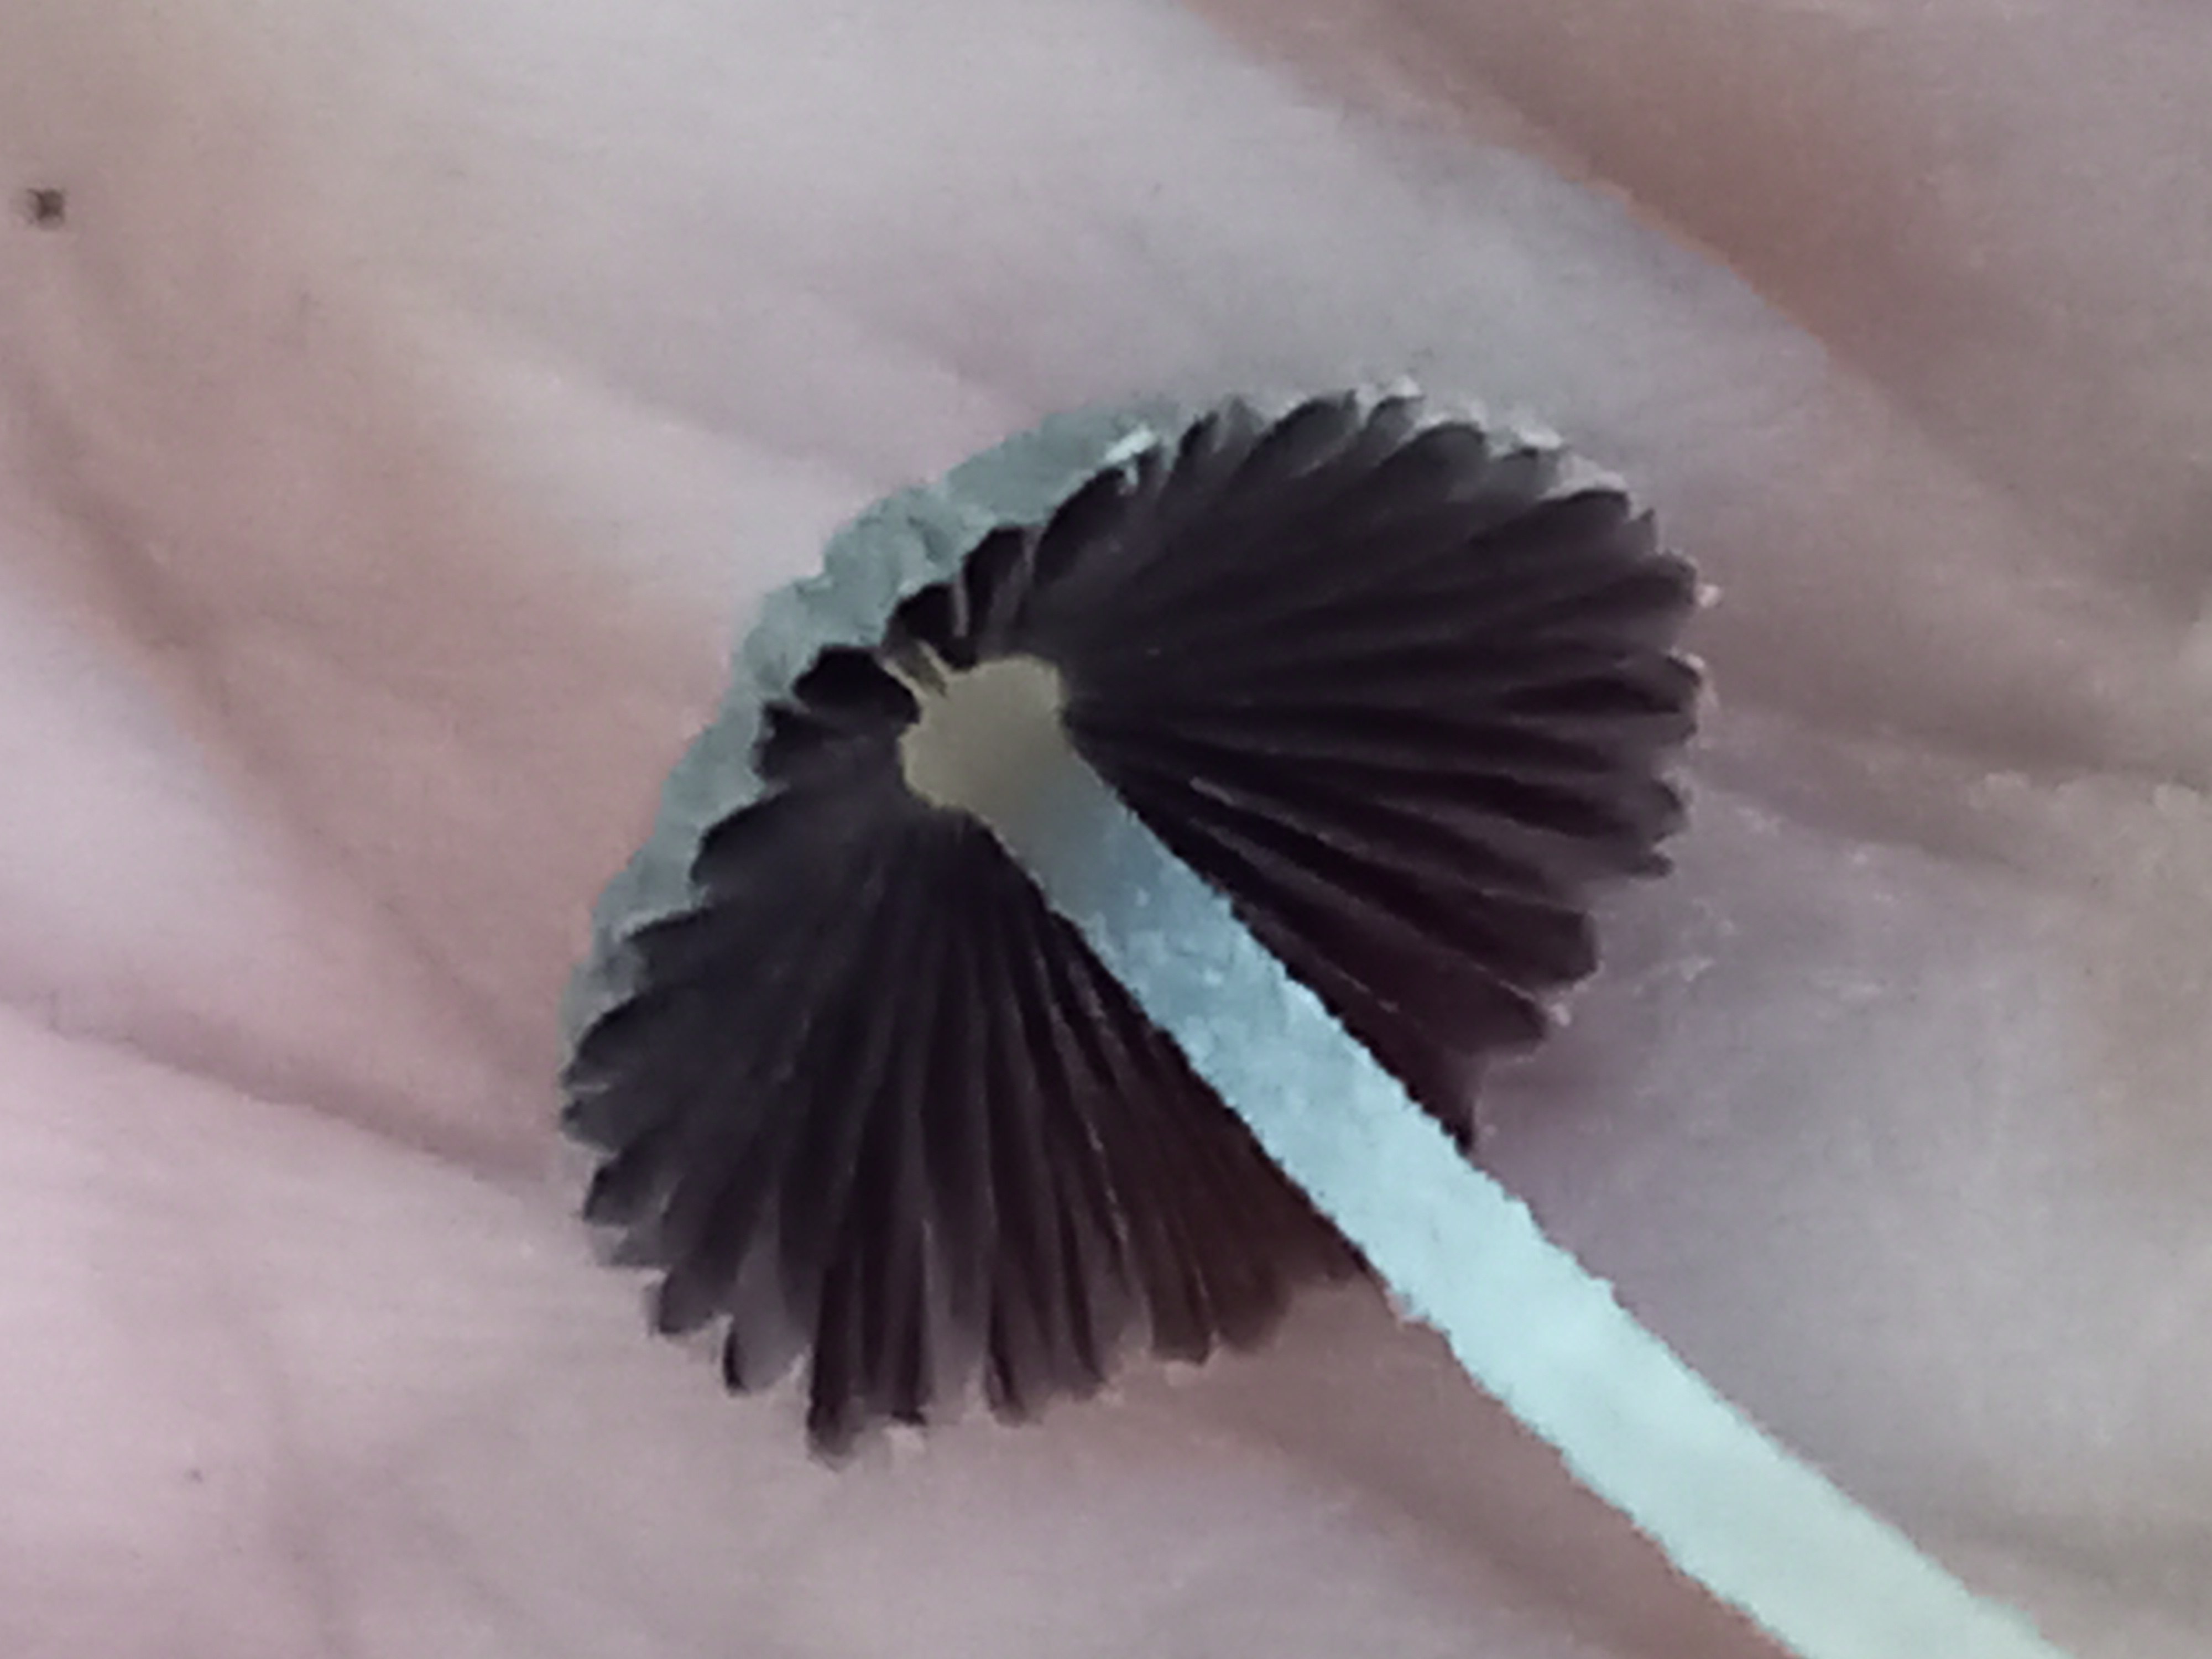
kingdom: Fungi
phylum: Basidiomycota
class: Agaricomycetes
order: Agaricales
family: Psathyrellaceae
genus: Coprinopsis
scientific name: Coprinopsis
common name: blækhat
